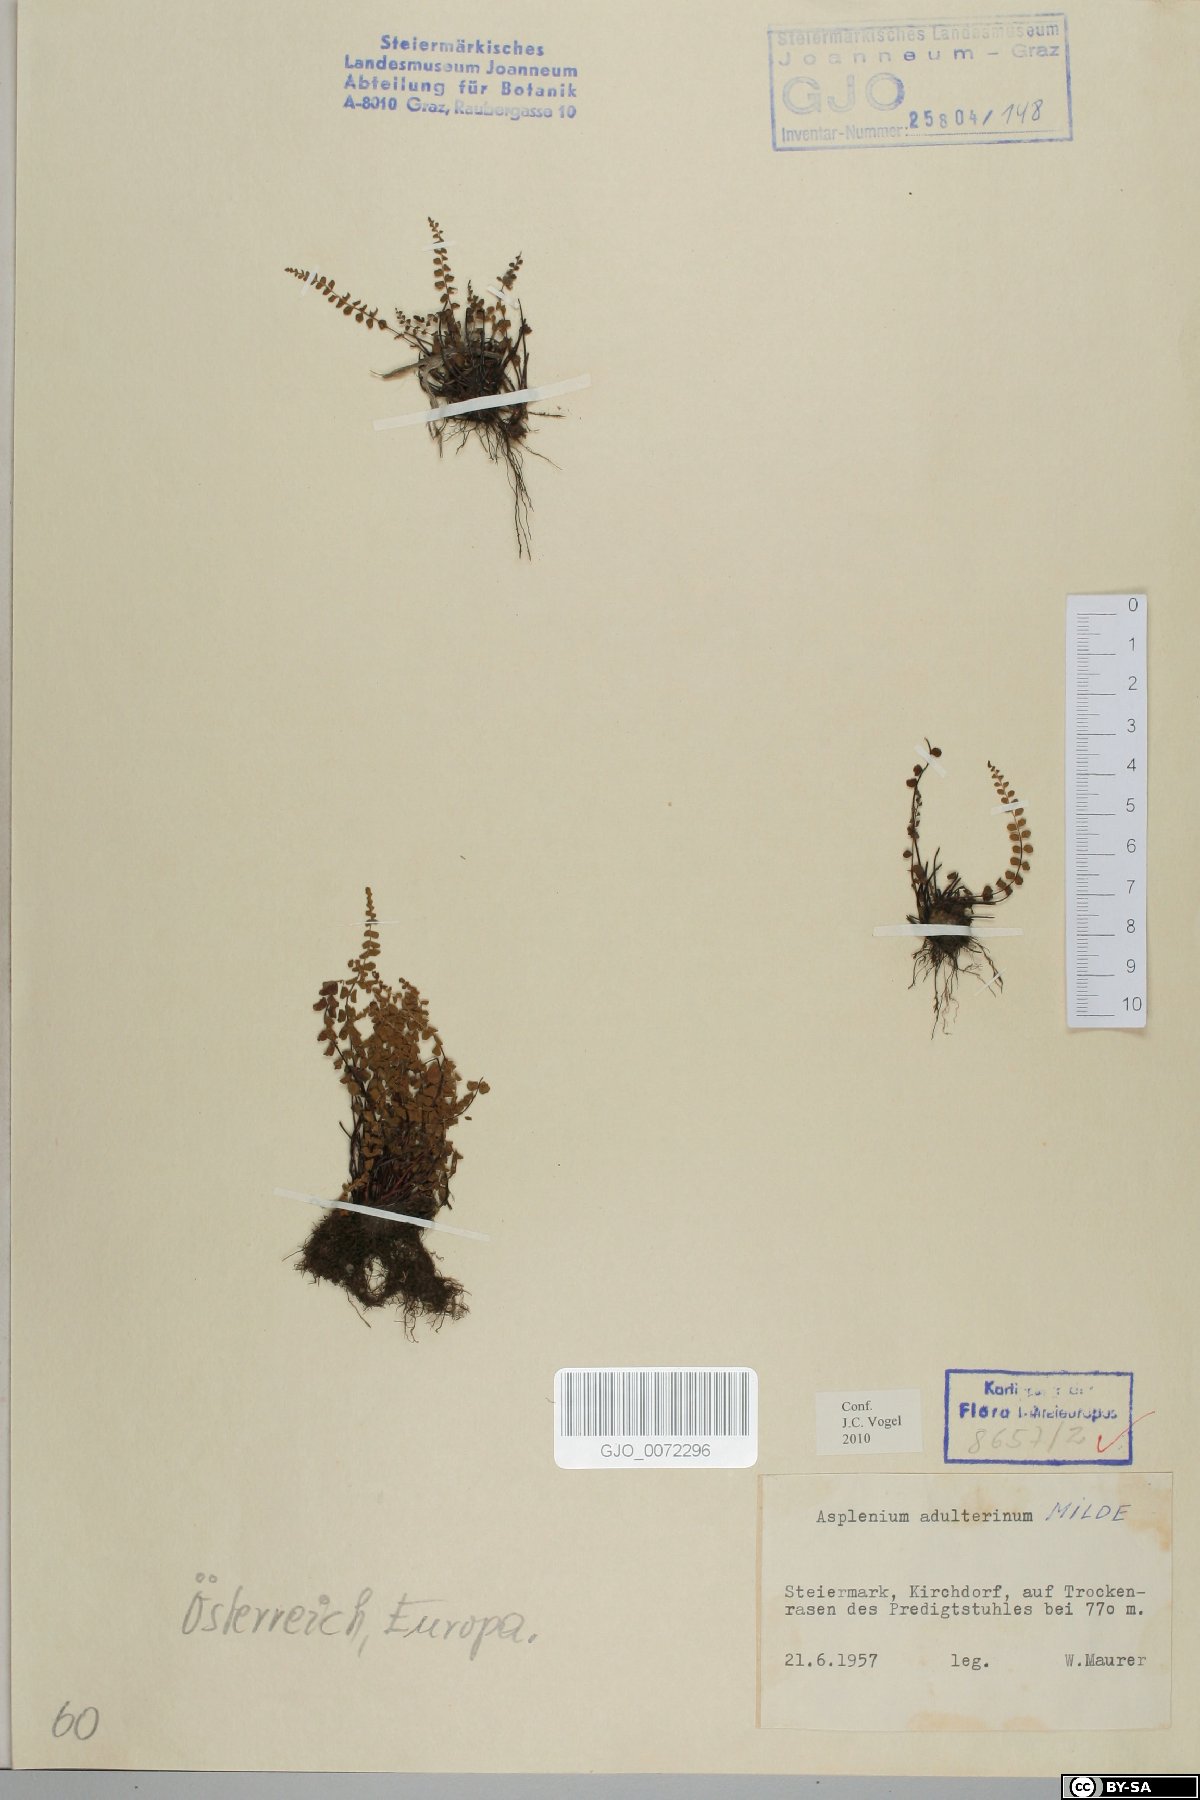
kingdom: Plantae
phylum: Tracheophyta
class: Polypodiopsida
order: Polypodiales
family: Aspleniaceae
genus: Asplenium
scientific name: Asplenium adulterinum
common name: Adulterated spleenwort
